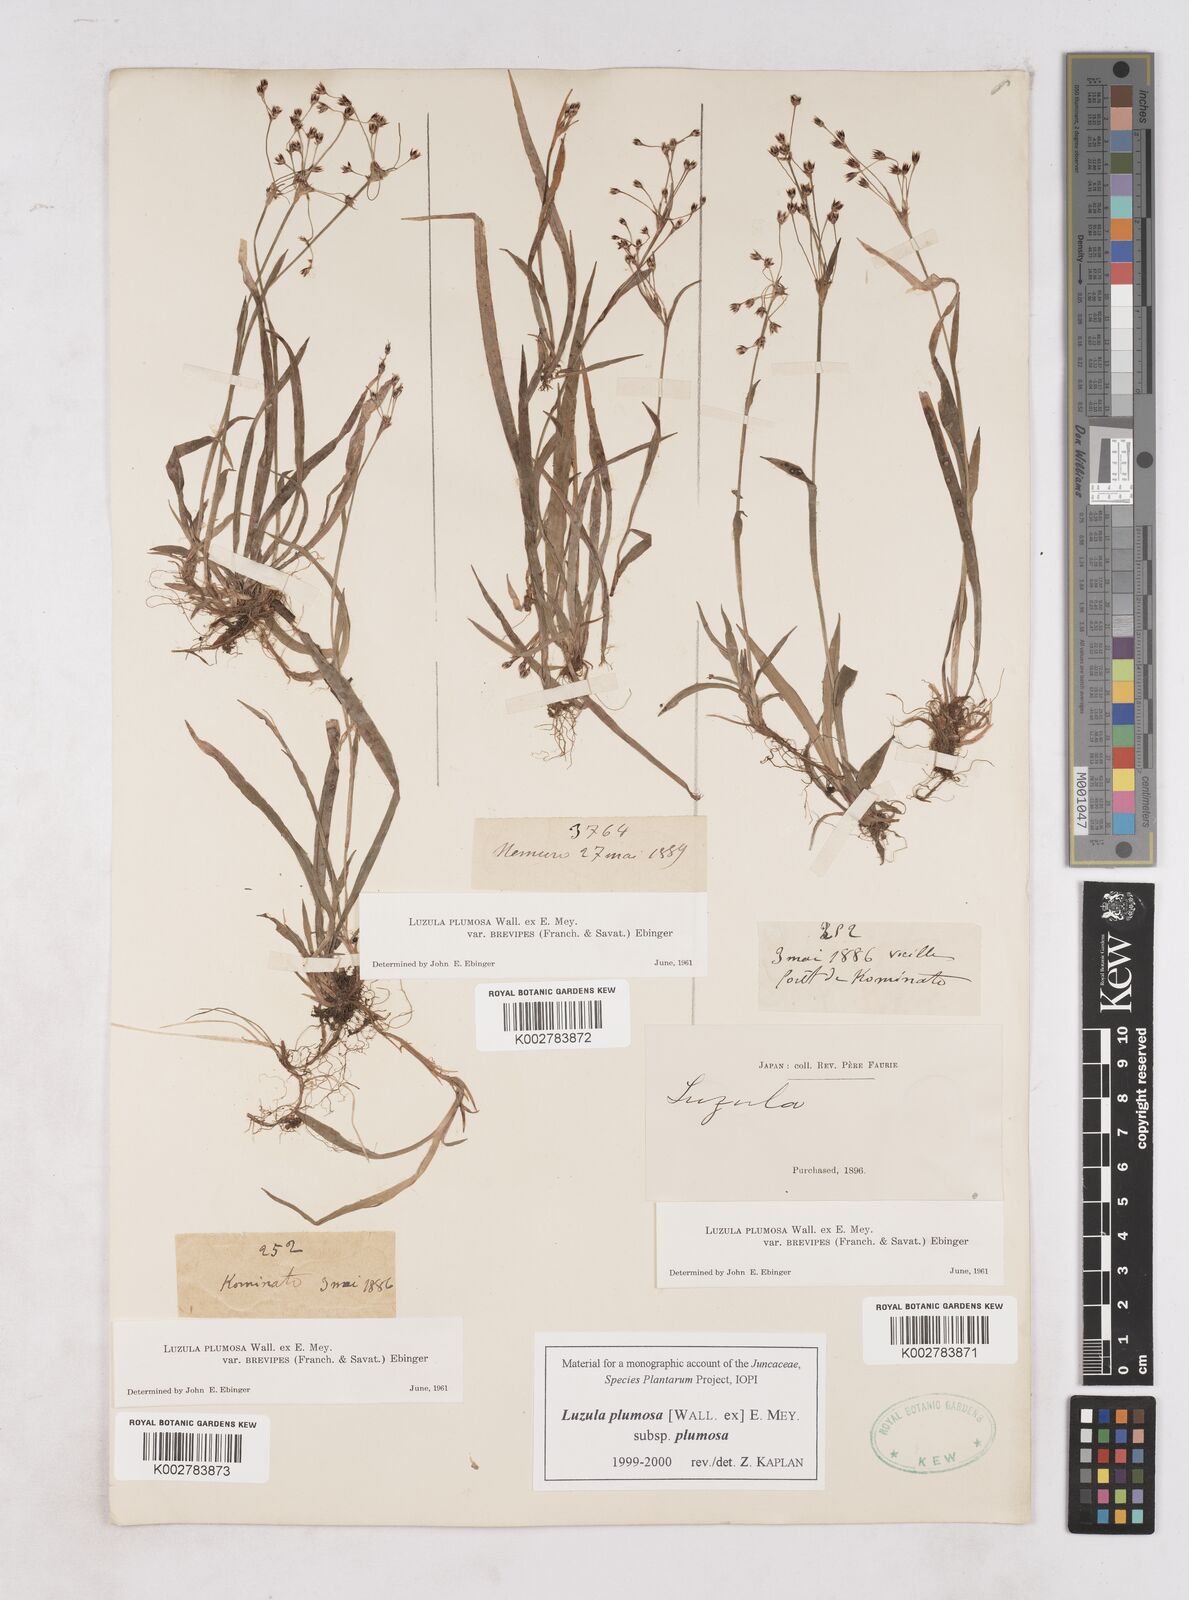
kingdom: Plantae
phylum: Tracheophyta
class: Liliopsida
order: Poales
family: Juncaceae
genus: Luzula
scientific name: Luzula plumosa
